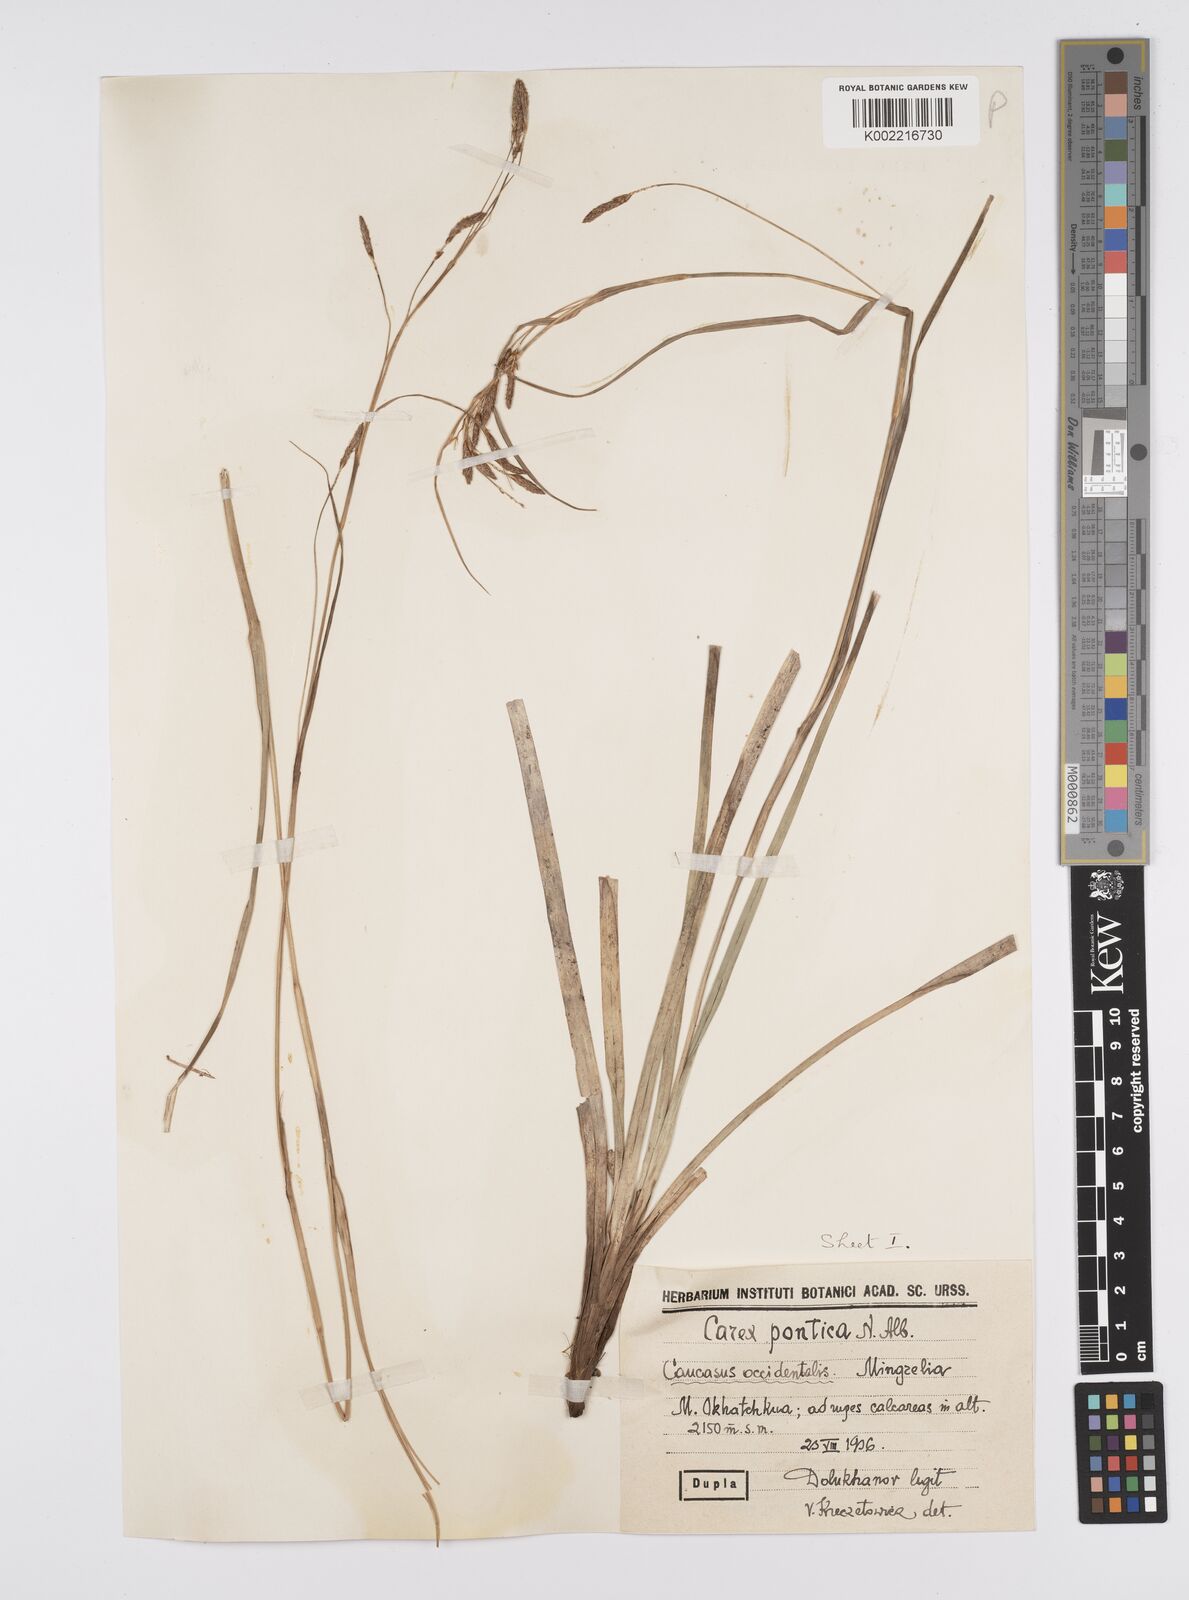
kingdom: Plantae
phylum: Tracheophyta
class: Liliopsida
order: Poales
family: Cyperaceae
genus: Carex
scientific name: Carex
